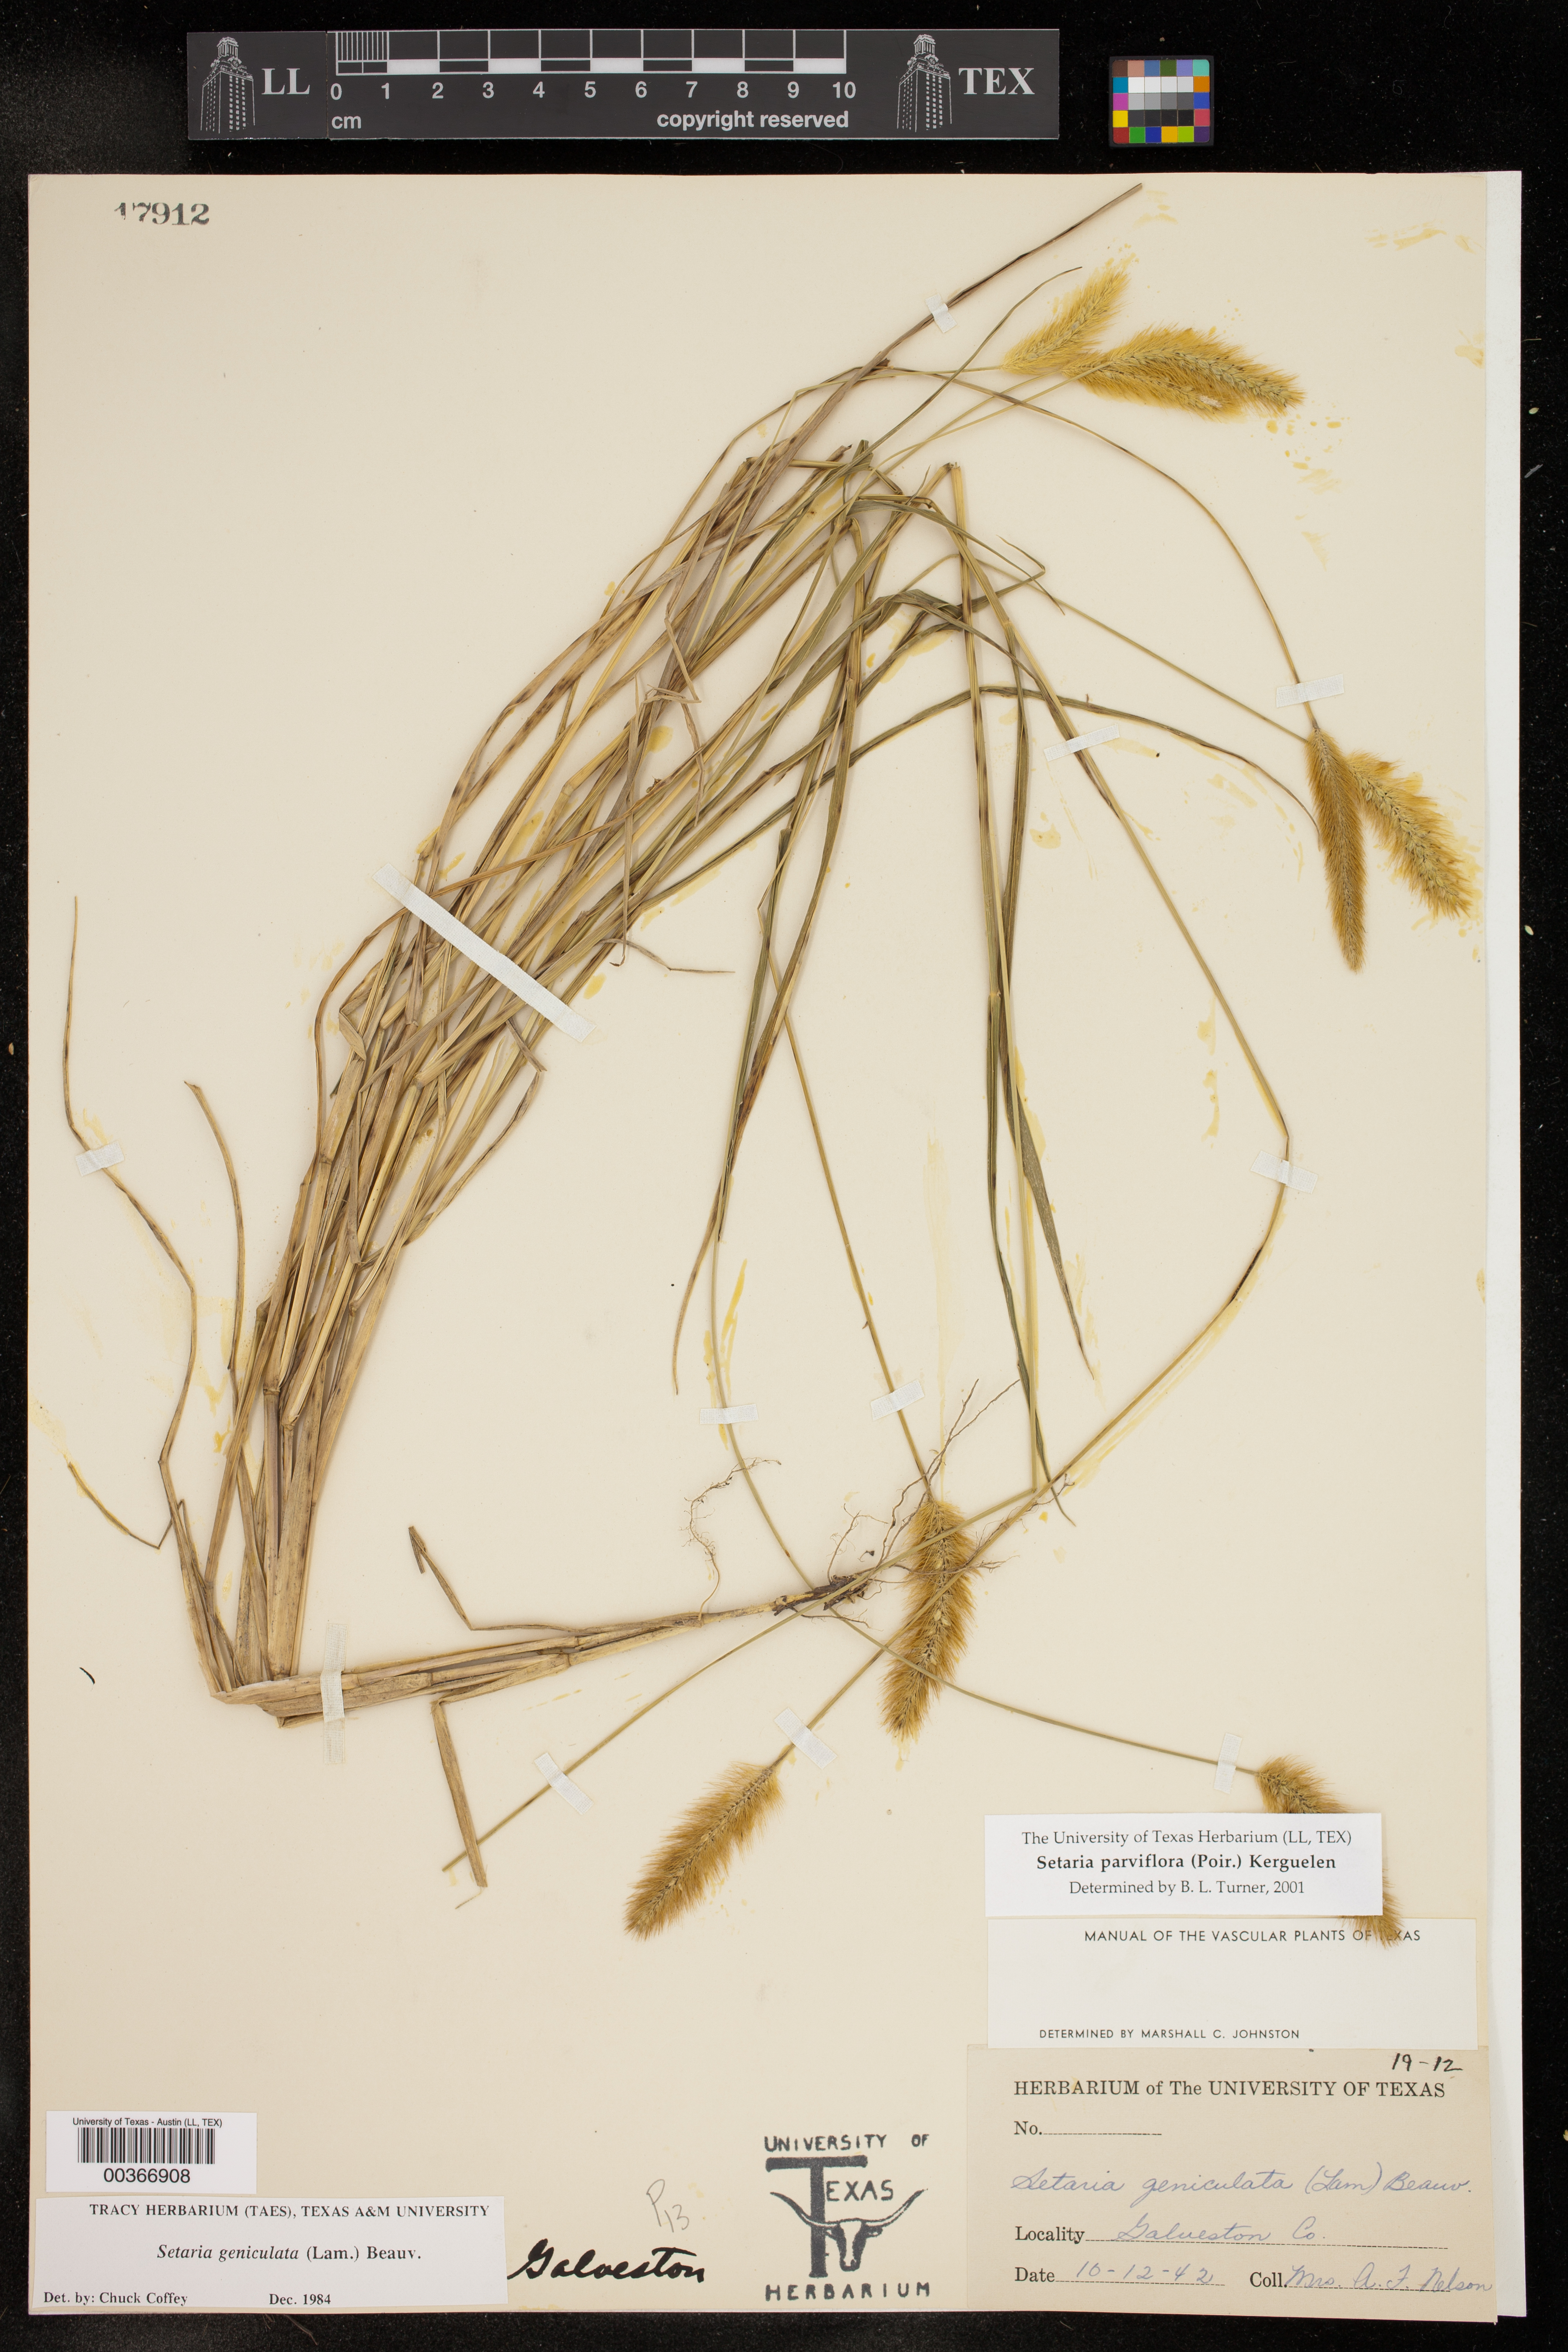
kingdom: Plantae
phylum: Tracheophyta
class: Liliopsida
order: Poales
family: Poaceae
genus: Setaria
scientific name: Setaria parviflora
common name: Knotroot bristle-grass
